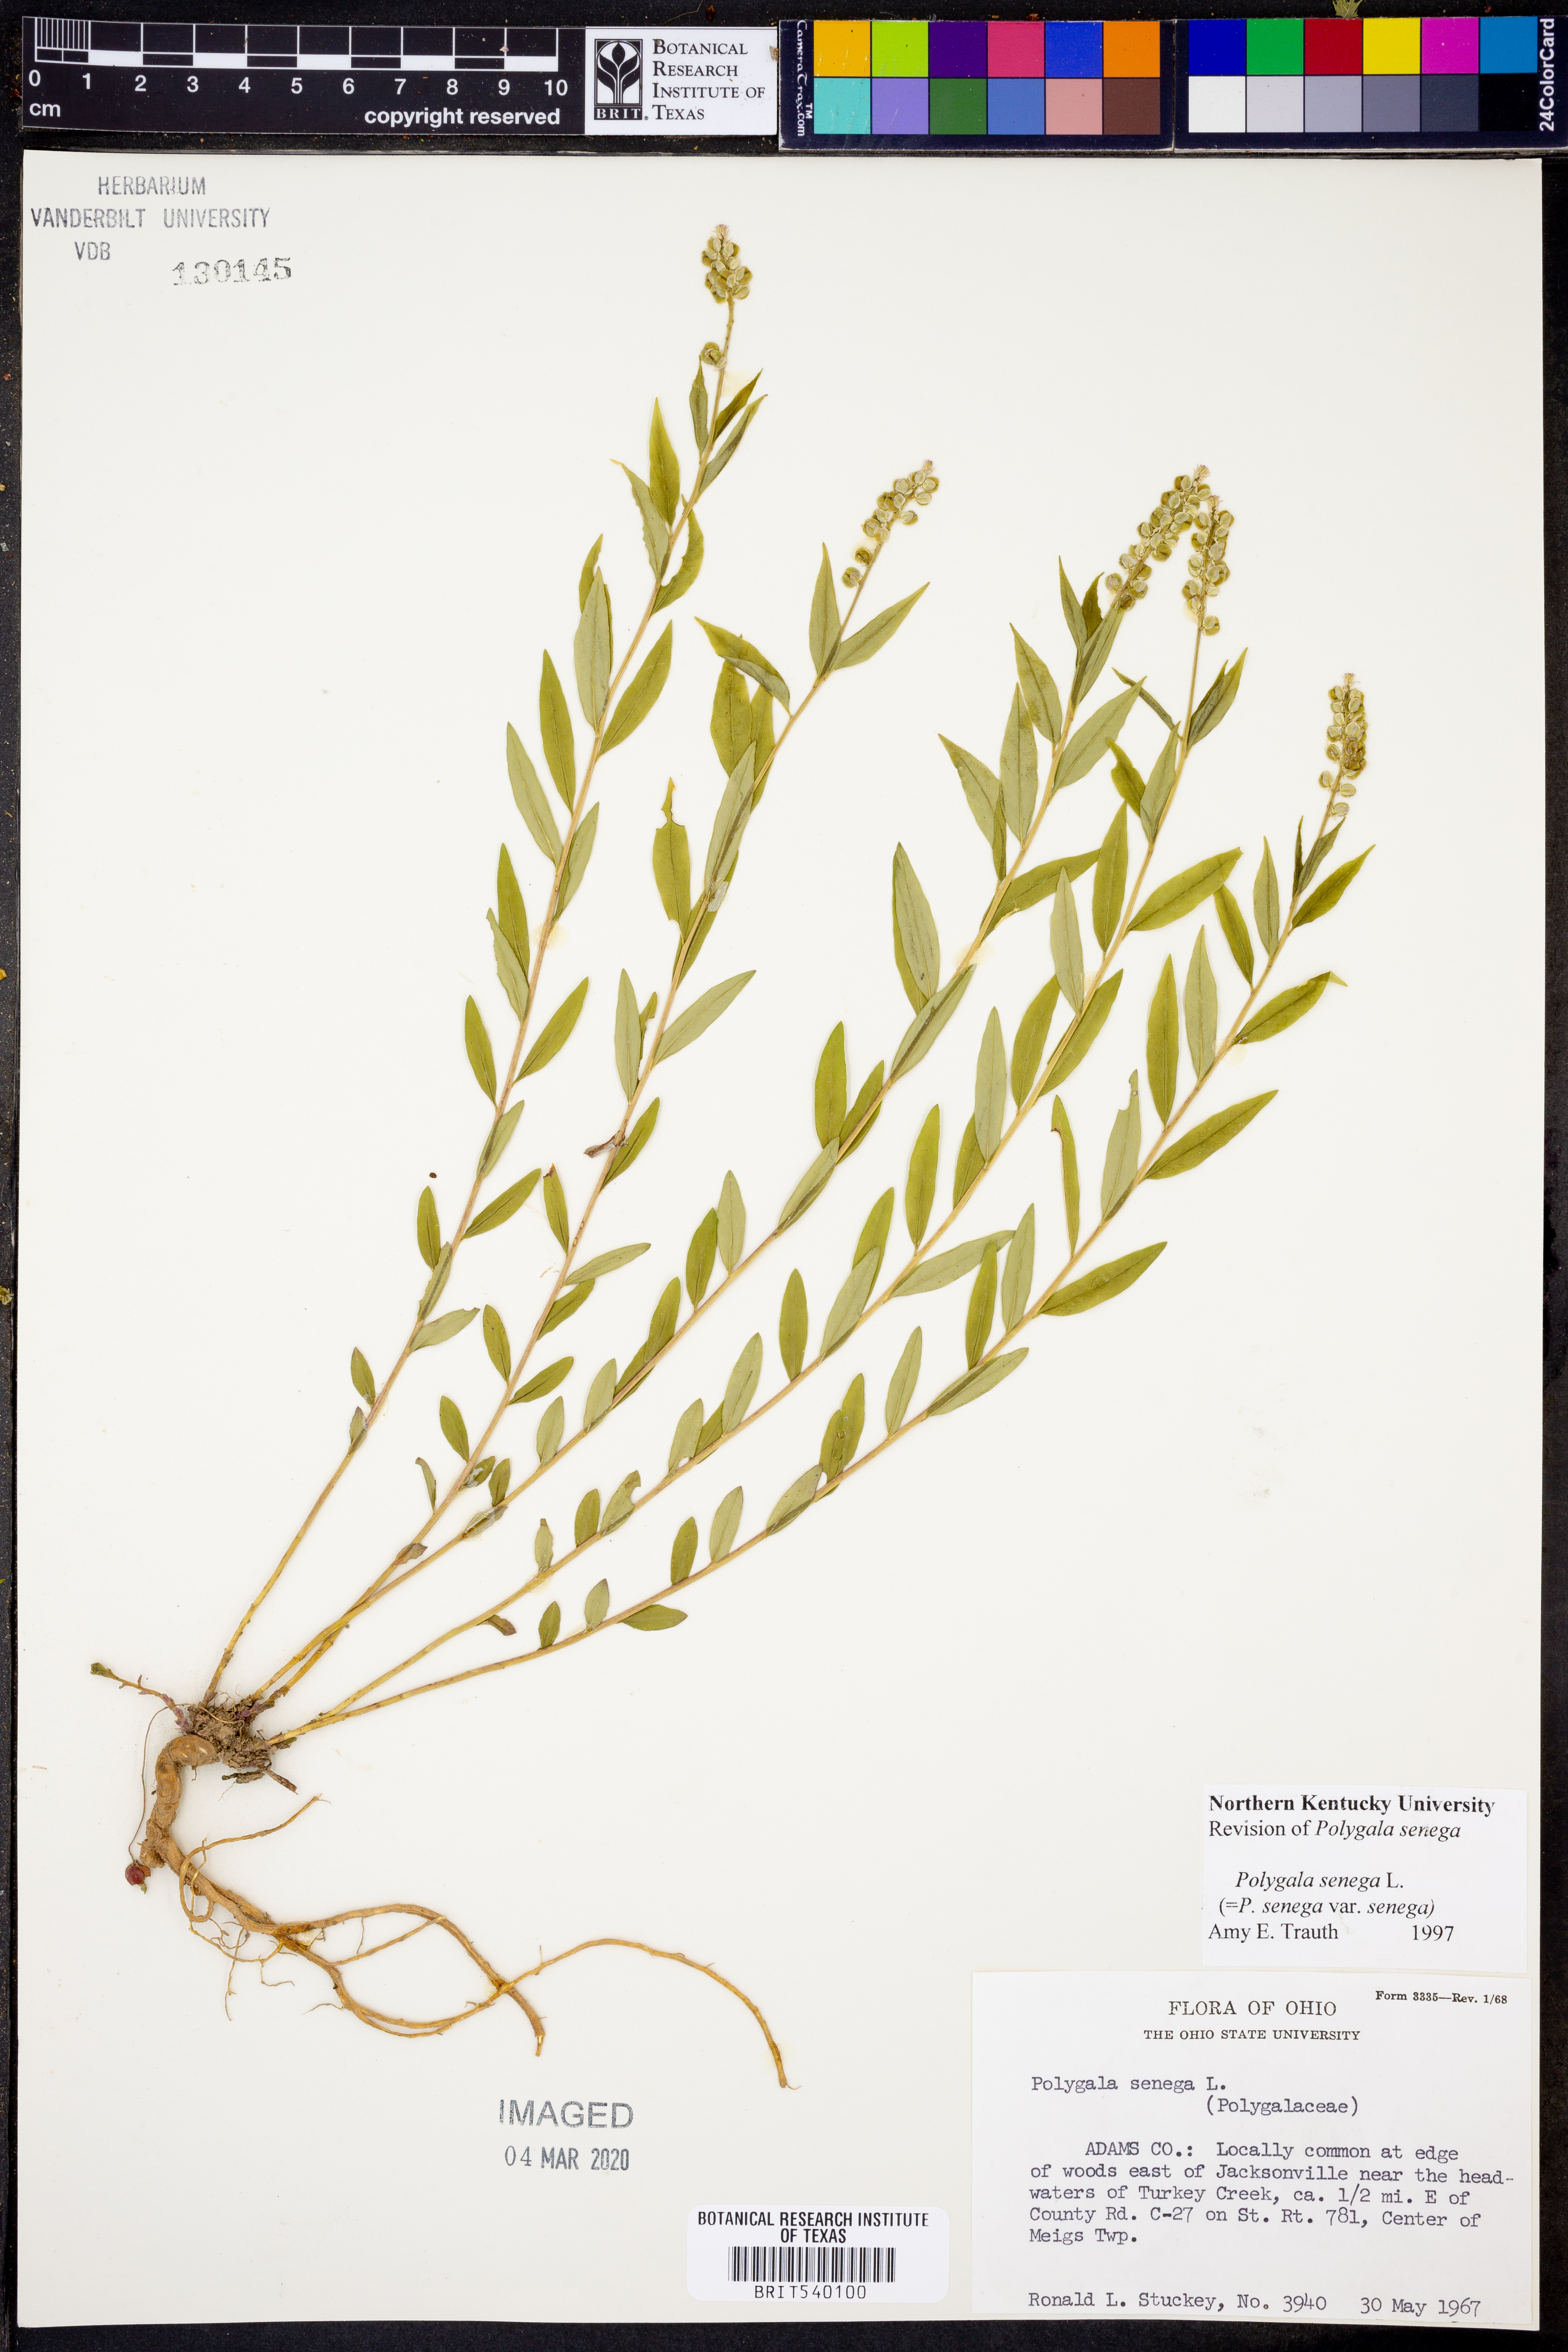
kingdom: Plantae
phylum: Tracheophyta
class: Magnoliopsida
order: Fabales
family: Polygalaceae
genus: Polygala
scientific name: Polygala senega
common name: Seneca snakeroot
